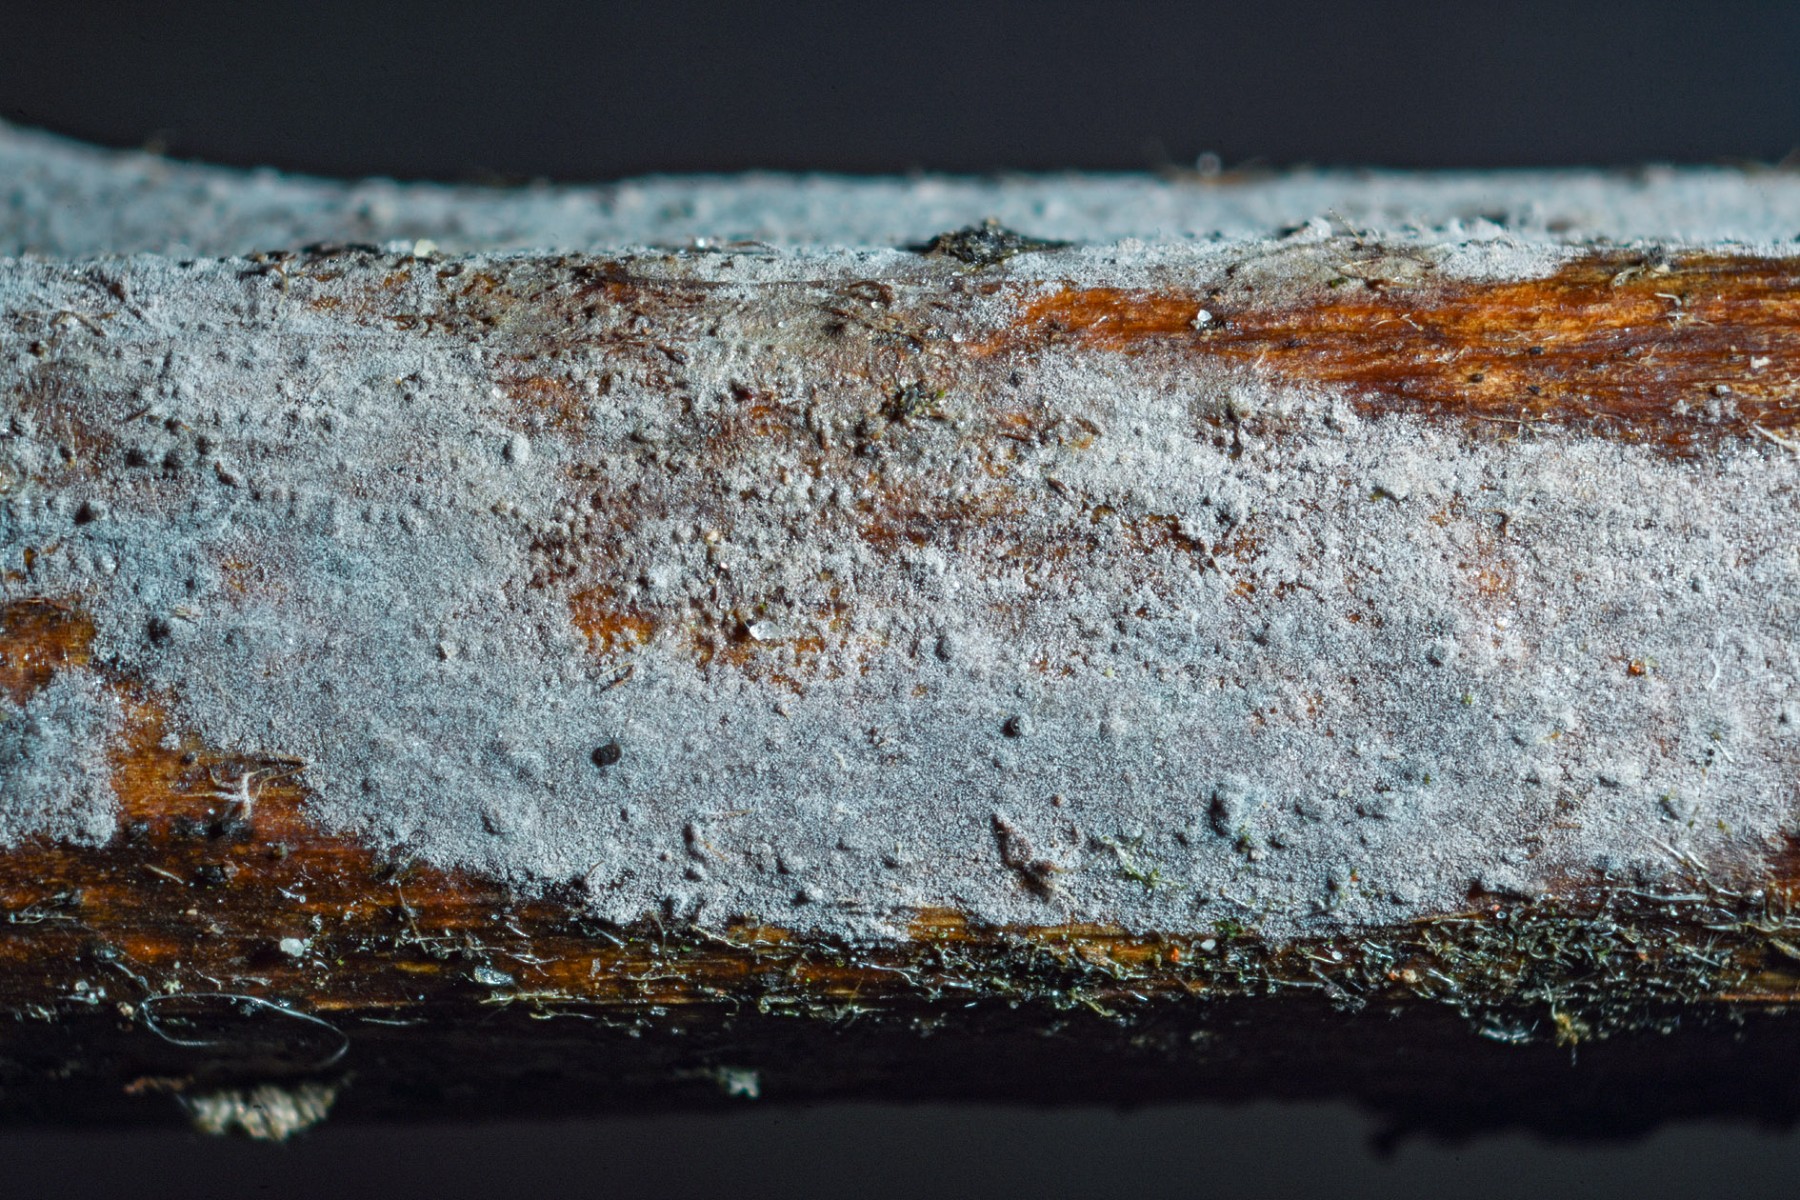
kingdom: Fungi
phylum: Basidiomycota
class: Agaricomycetes
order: Russulales
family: Peniophoraceae
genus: Peniophora
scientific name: Peniophora lycii
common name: grynet voksskind
